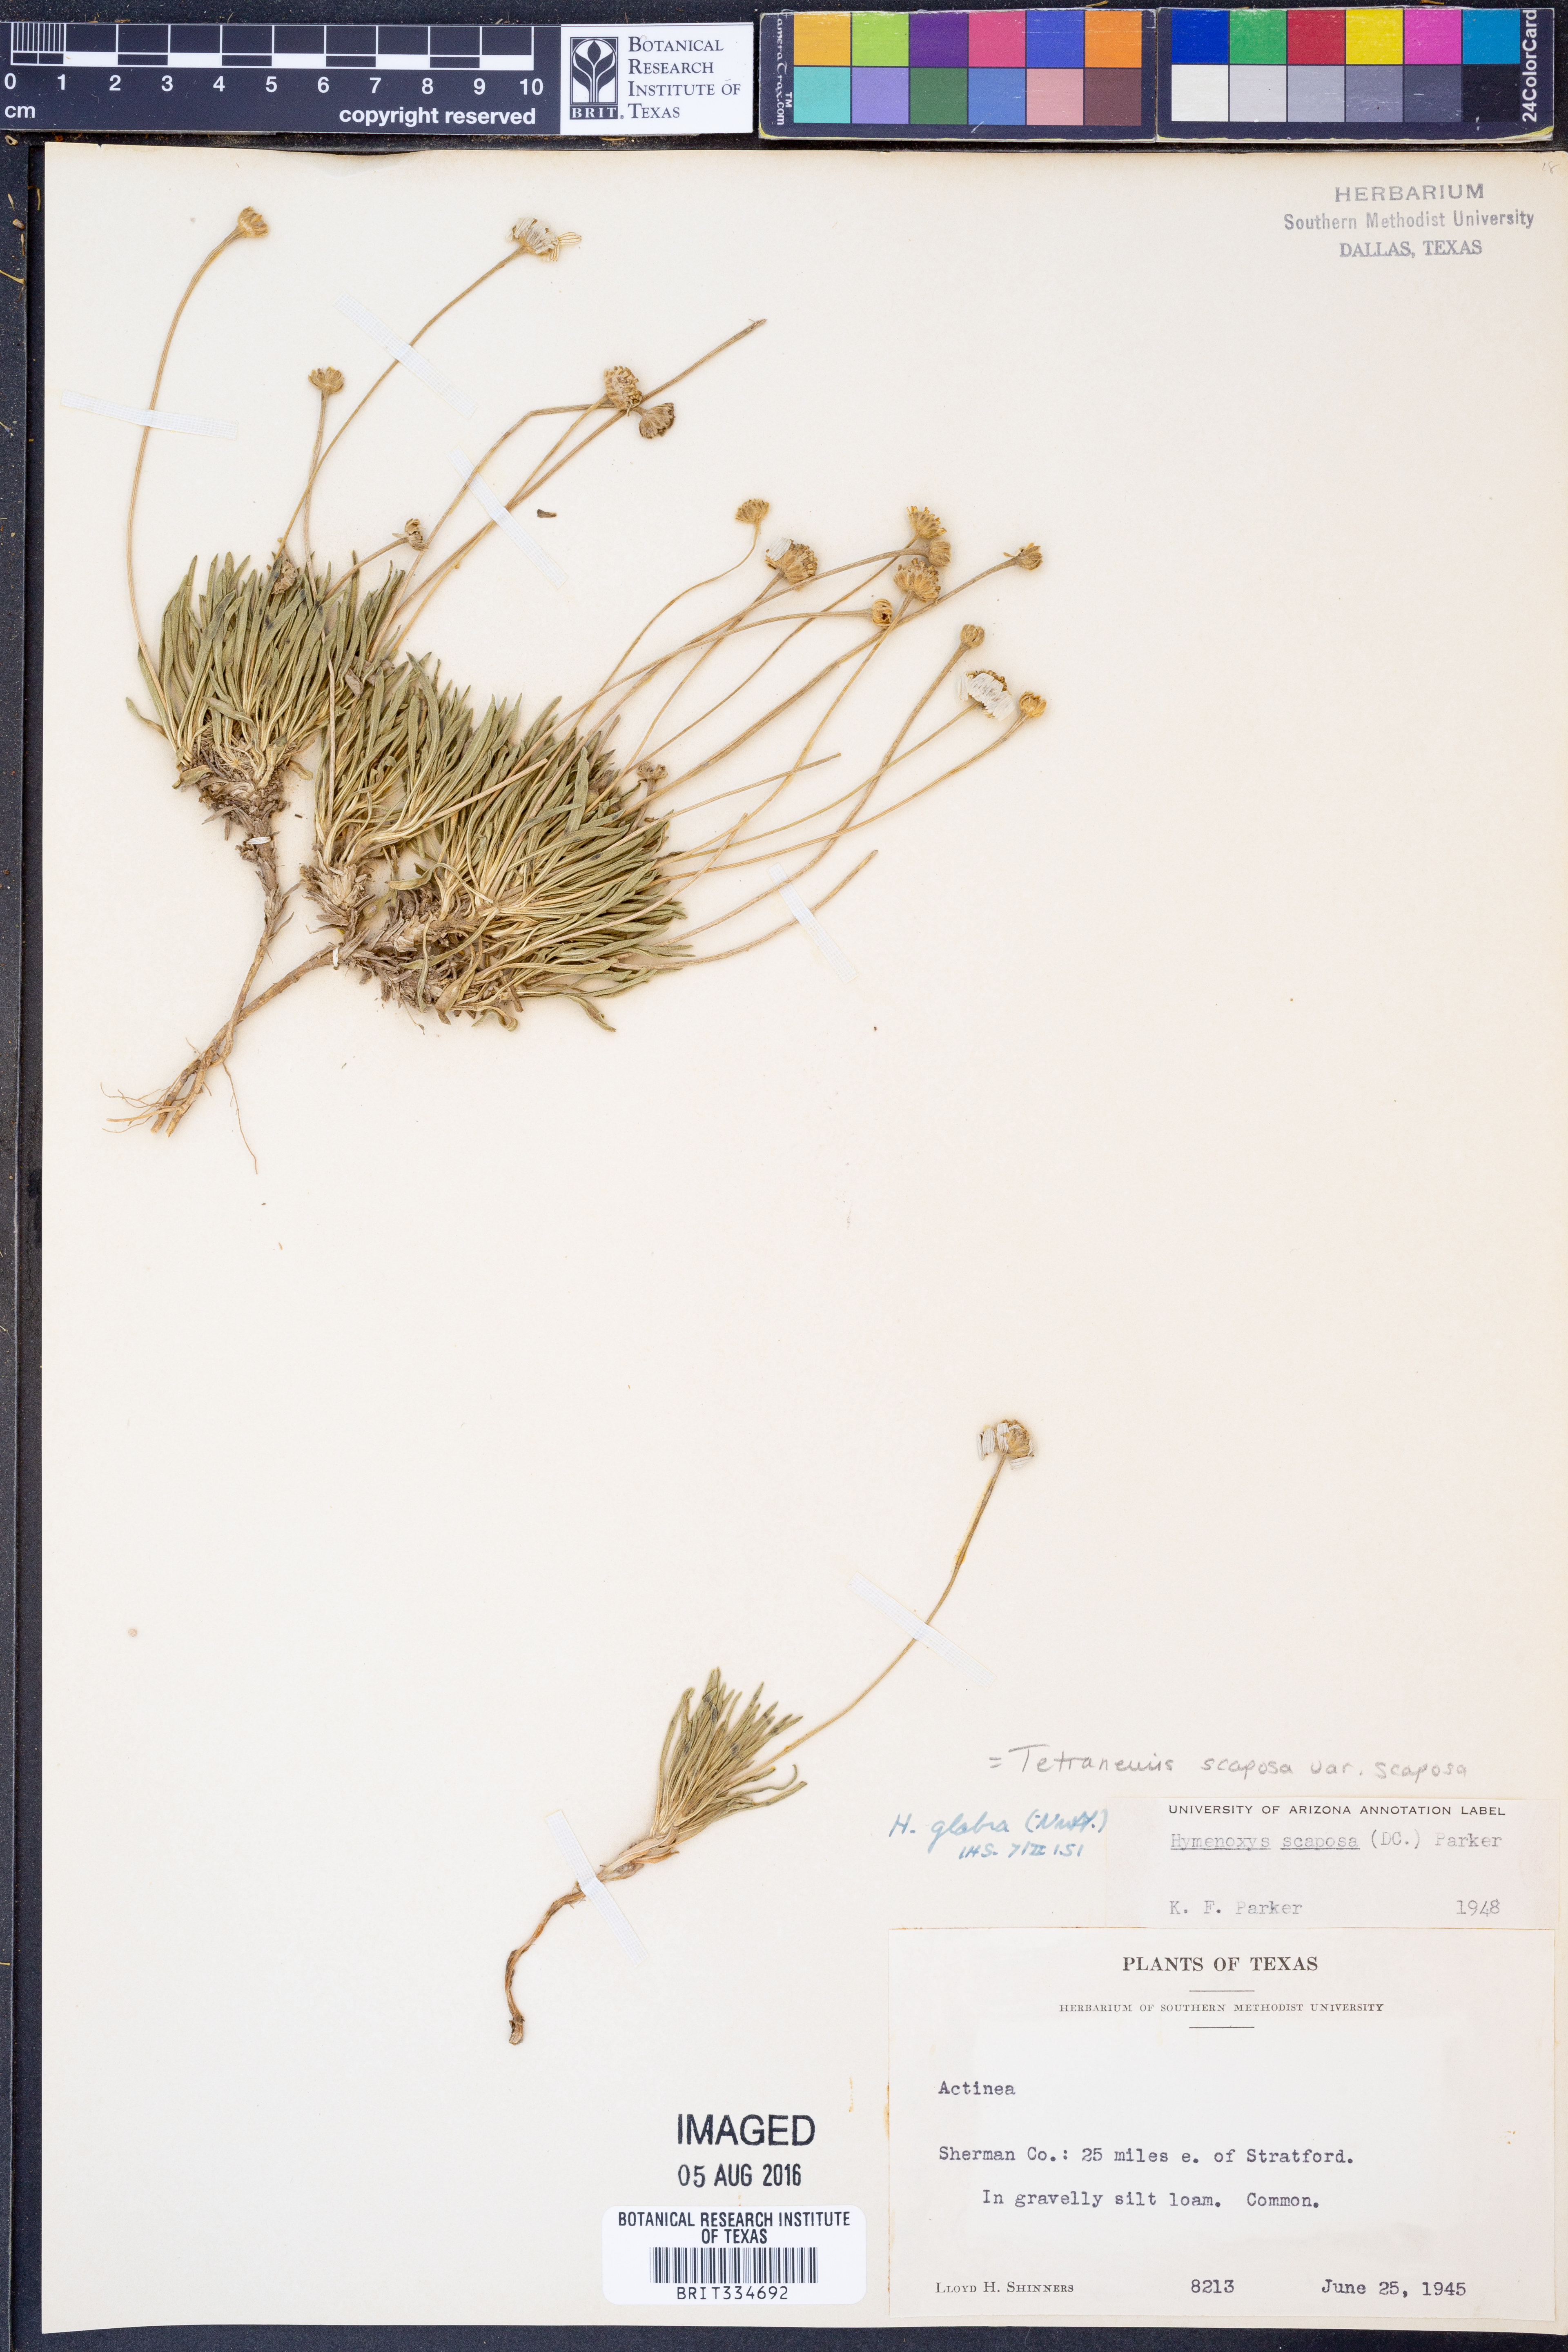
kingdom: Plantae
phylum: Tracheophyta
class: Magnoliopsida
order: Asterales
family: Asteraceae
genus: Tetraneuris
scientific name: Tetraneuris scaposa
